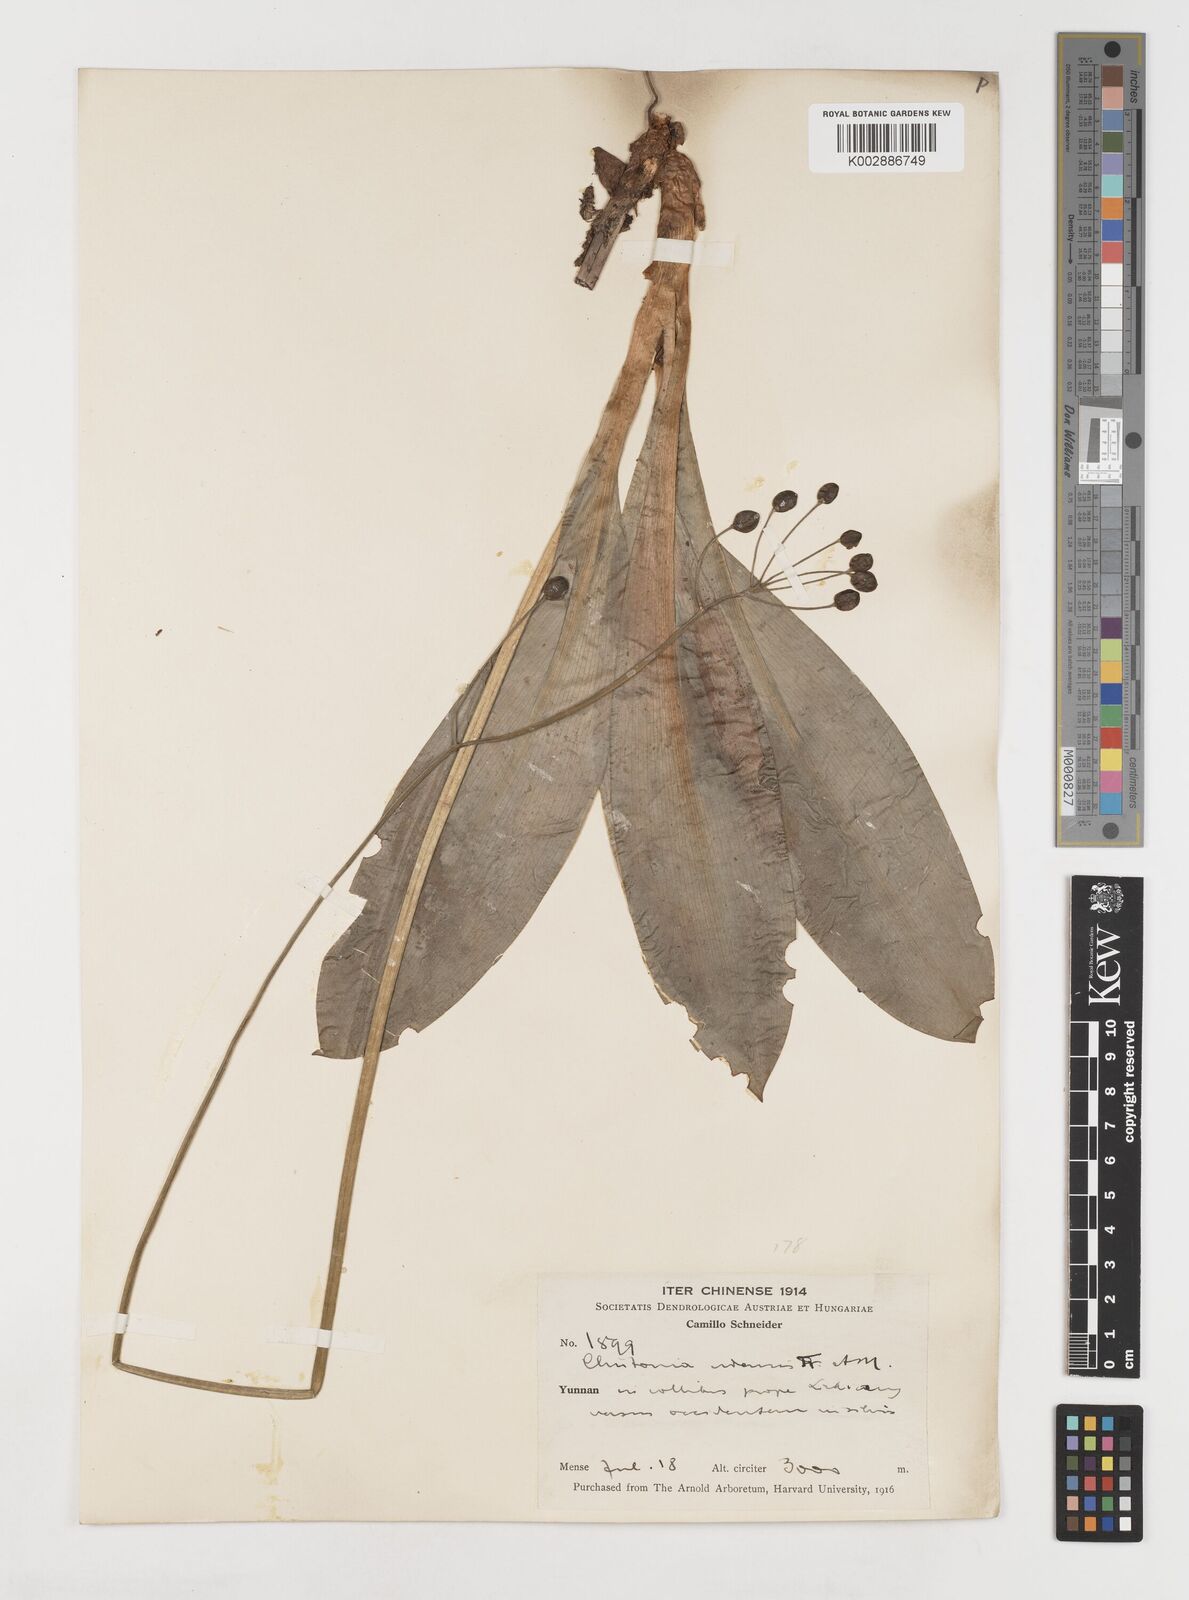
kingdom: Plantae
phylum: Tracheophyta
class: Liliopsida
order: Liliales
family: Liliaceae
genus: Clintonia
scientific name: Clintonia udensis
